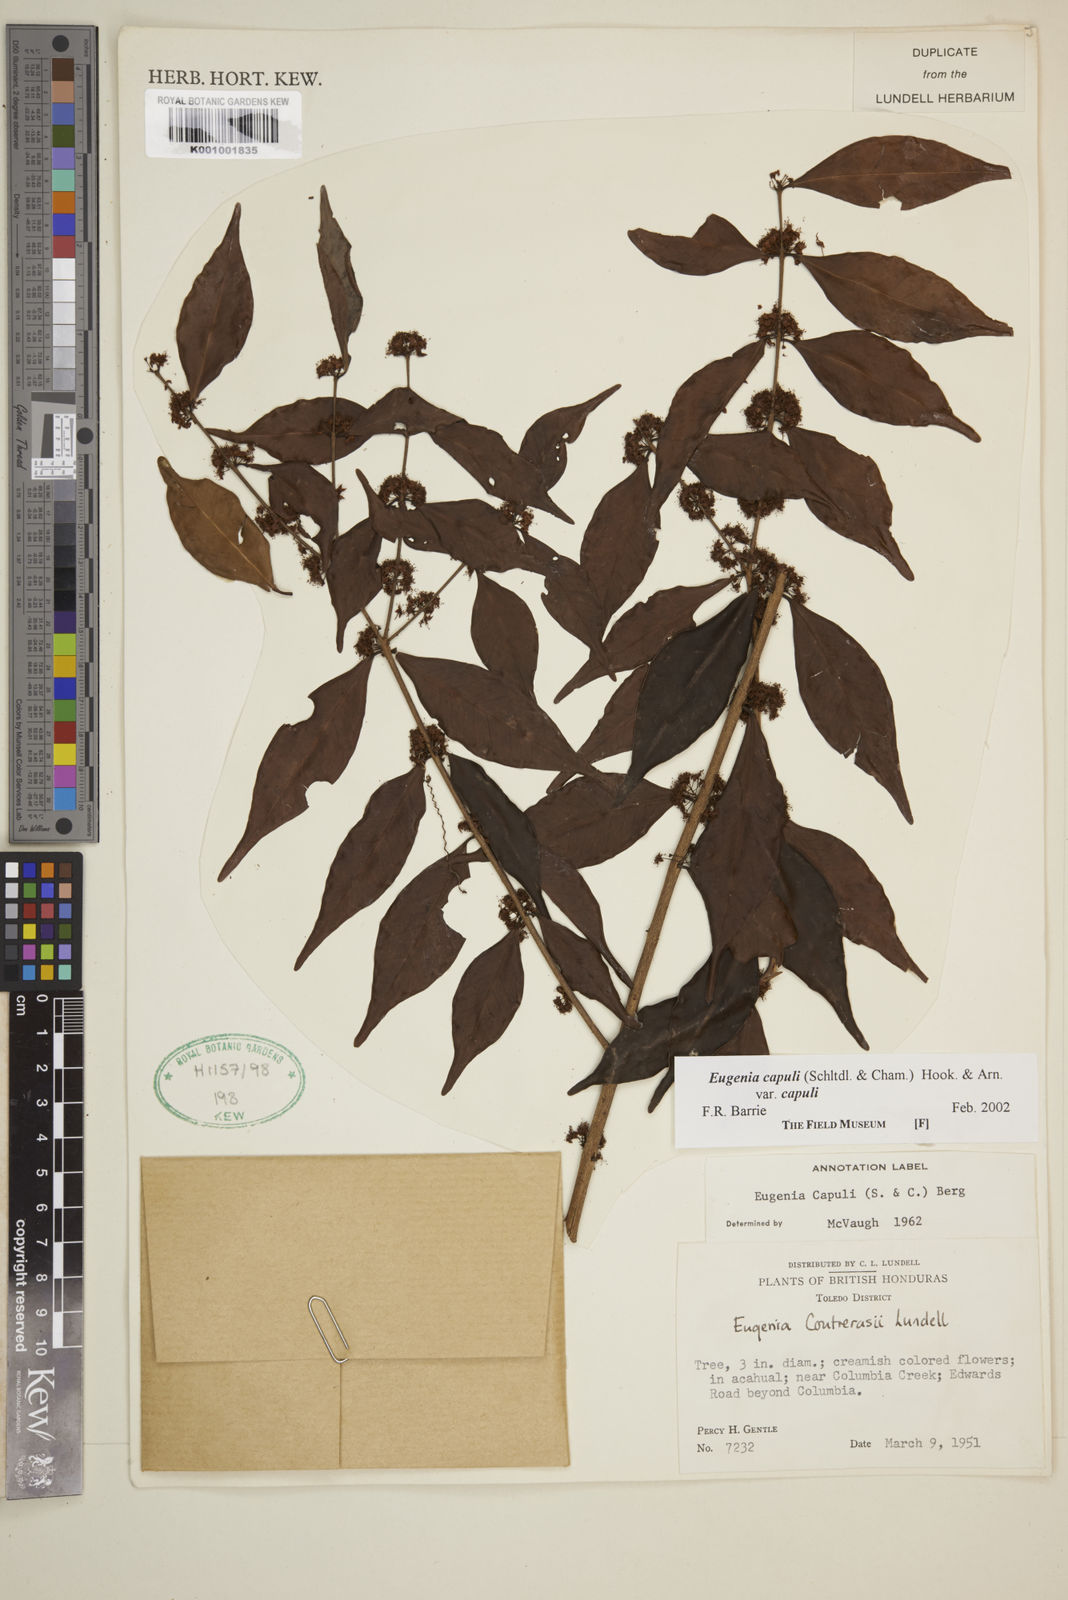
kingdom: Plantae
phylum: Tracheophyta
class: Magnoliopsida
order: Myrtales
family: Myrtaceae
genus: Eugenia
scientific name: Eugenia capuli
